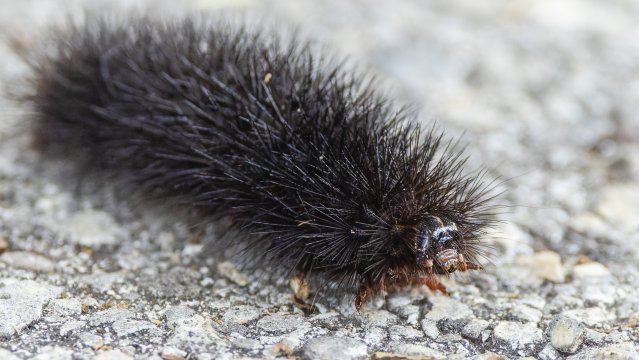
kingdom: Animalia
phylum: Arthropoda
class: Insecta
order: Lepidoptera
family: Hesperiidae
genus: Autochton
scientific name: Autochton
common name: Northern Cloudywing
